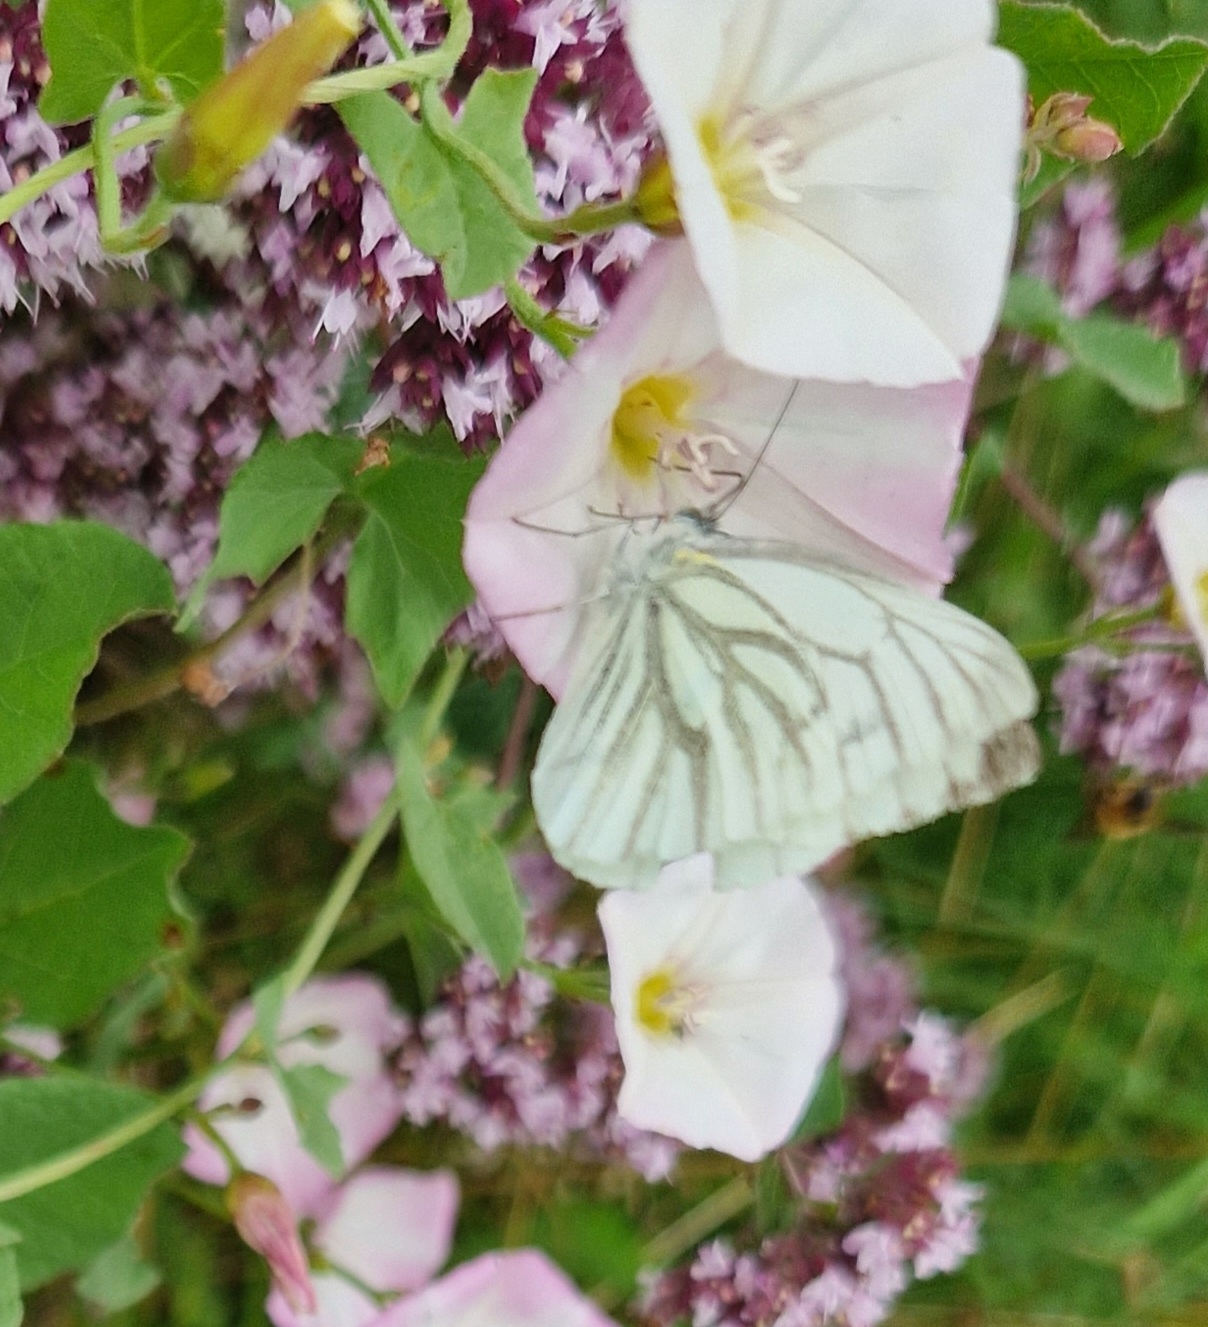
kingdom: Animalia
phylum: Arthropoda
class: Insecta
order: Lepidoptera
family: Pieridae
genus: Pieris
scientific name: Pieris napi
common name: Grønåret kålsommerfugl
